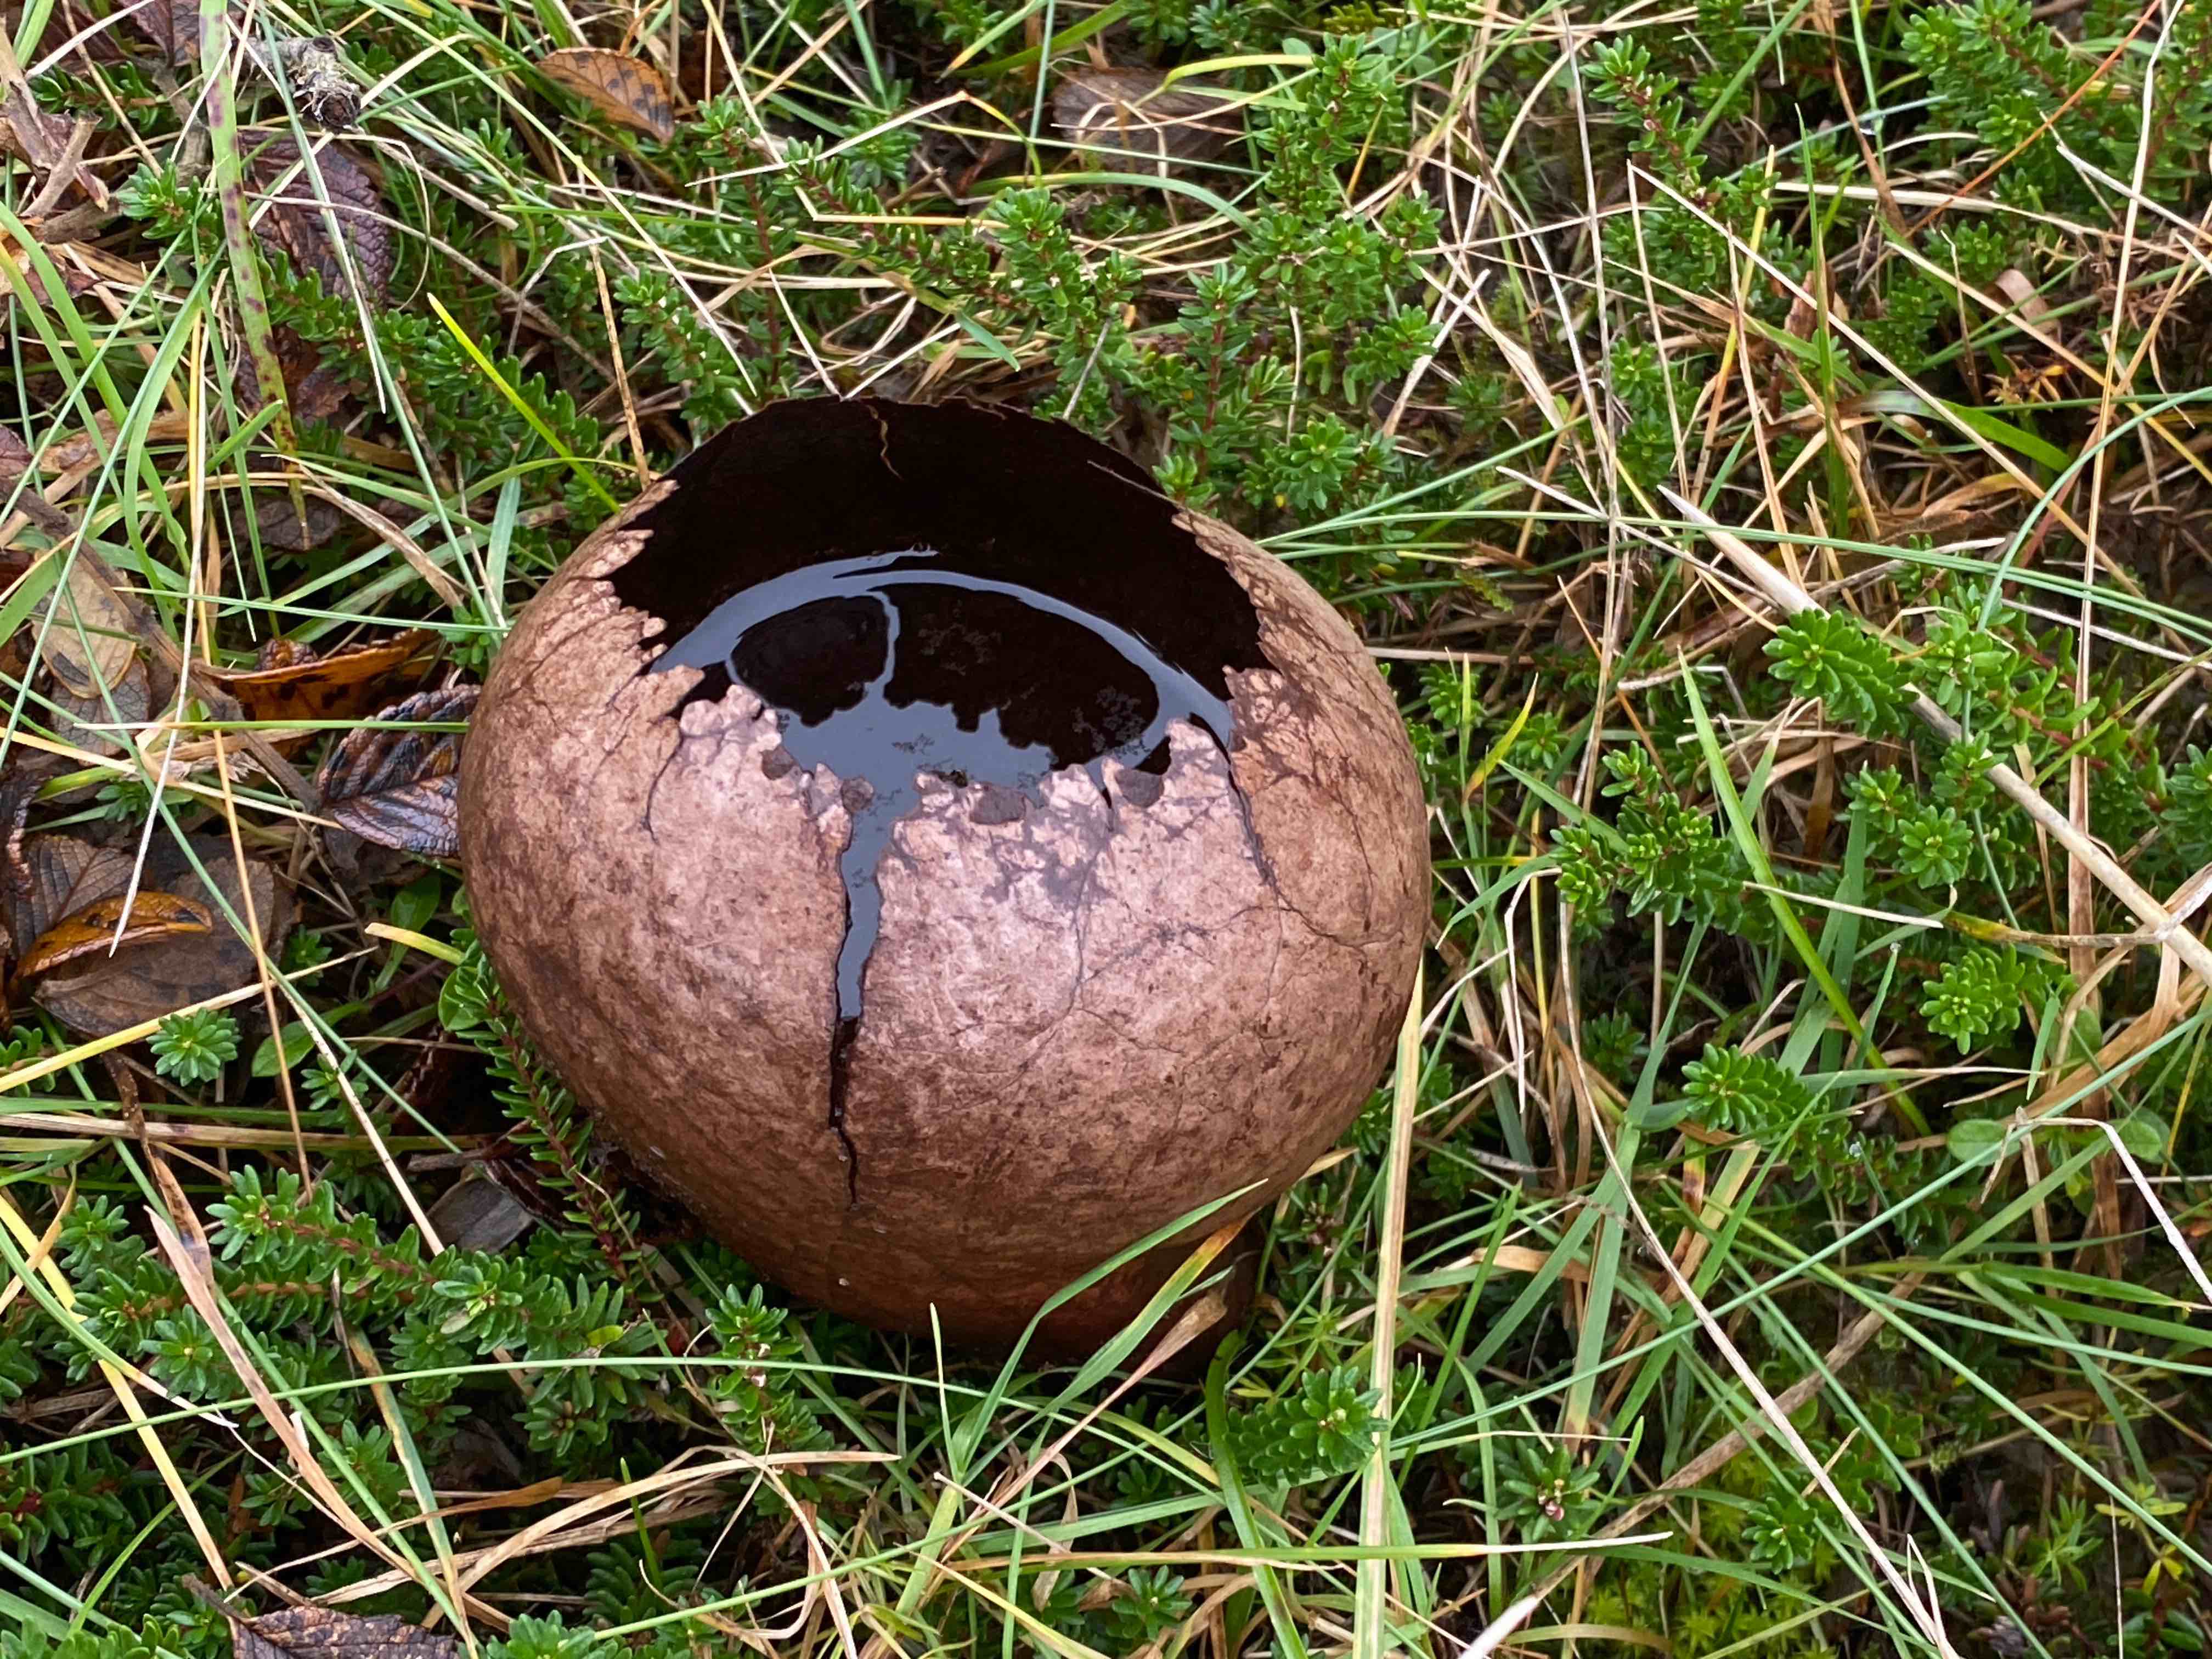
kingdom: Fungi
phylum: Basidiomycota
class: Agaricomycetes
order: Agaricales
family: Lycoperdaceae
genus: Bovistella
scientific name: Bovistella utriformis
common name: skællet støvbold
